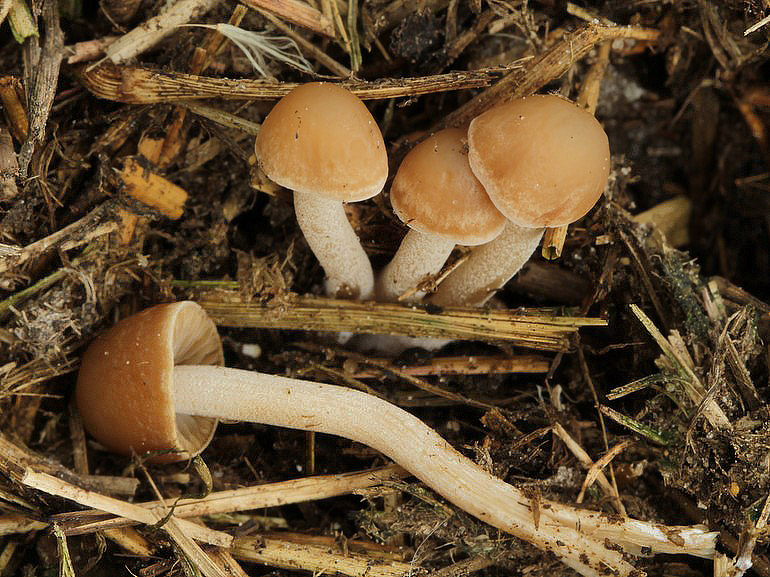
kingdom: Fungi
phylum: Basidiomycota
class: Agaricomycetes
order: Agaricales
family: Bolbitiaceae
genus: Panaeolus
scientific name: Panaeolus olivaceus
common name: lysstokket glanshat
